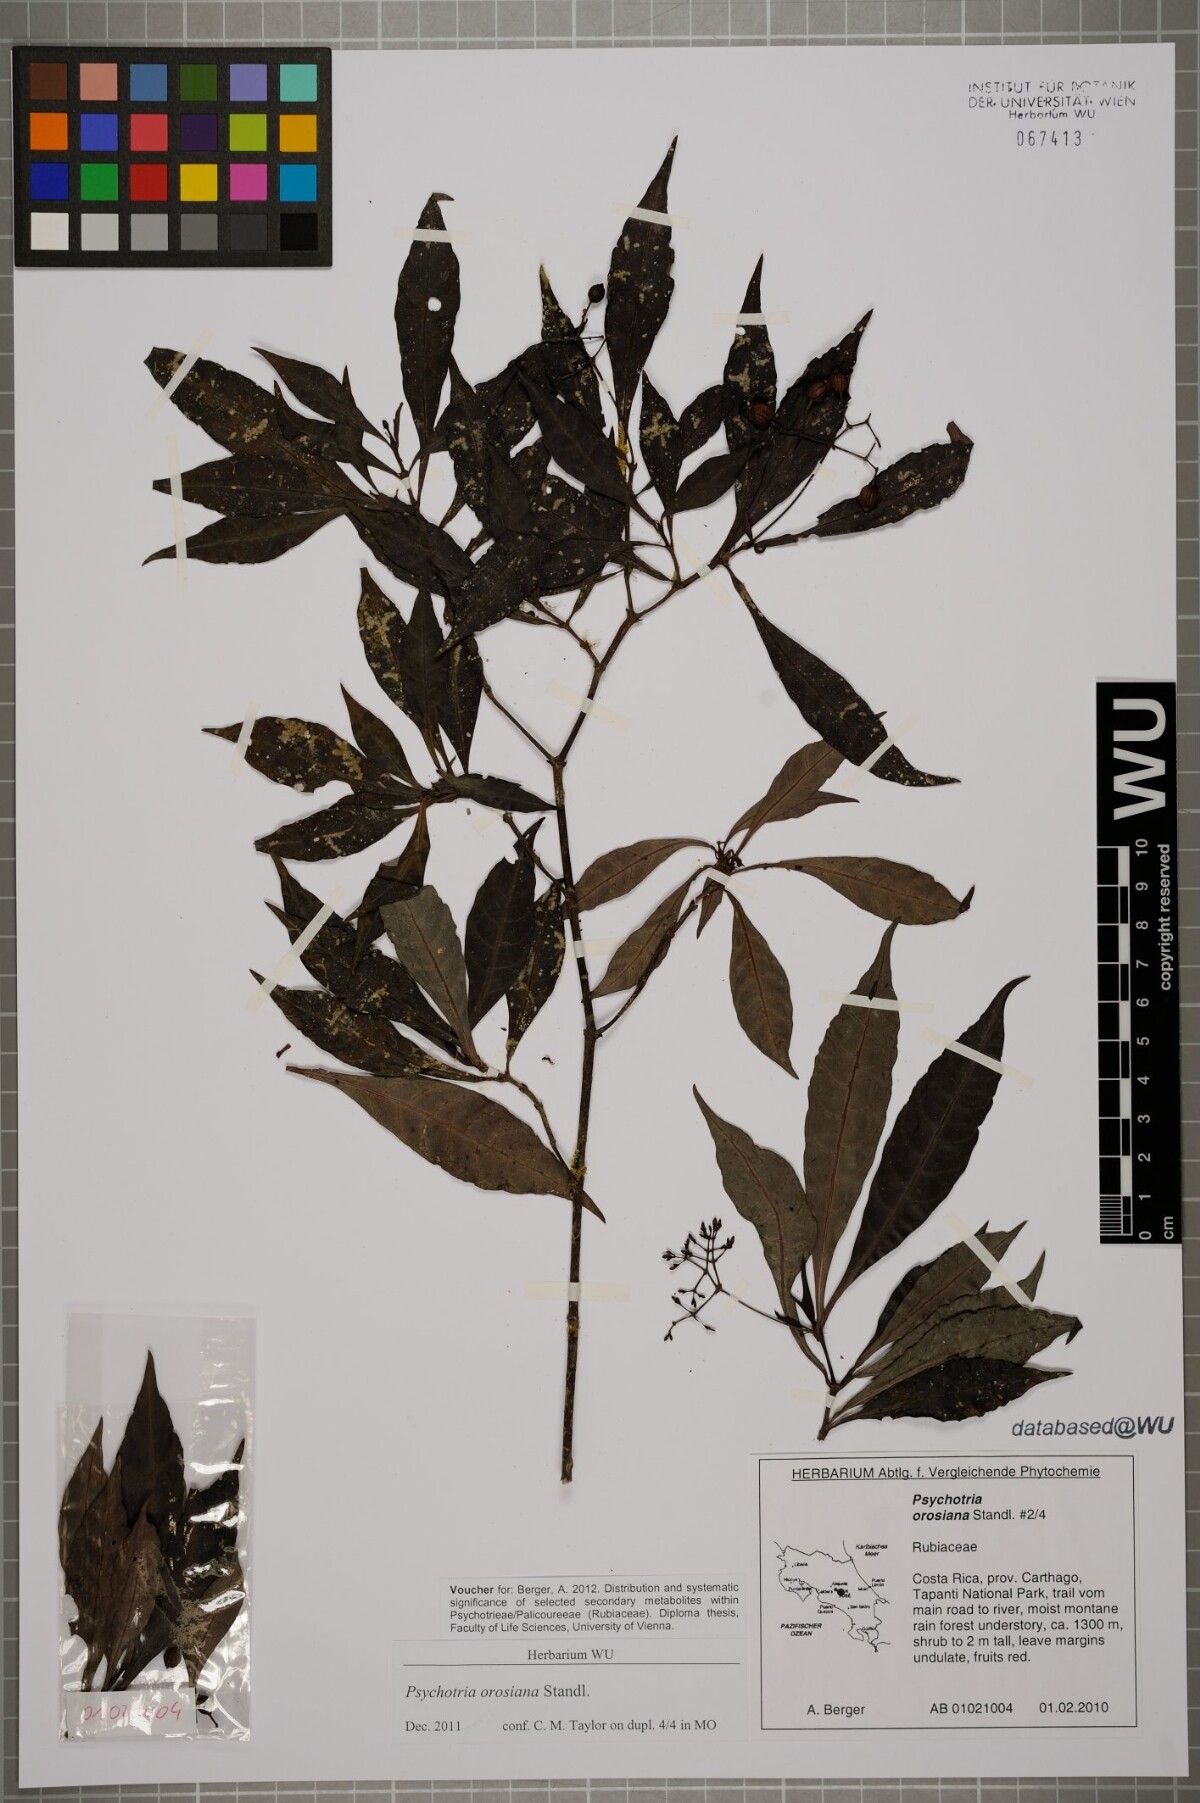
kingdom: Plantae
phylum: Tracheophyta
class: Magnoliopsida
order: Gentianales
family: Rubiaceae
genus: Psychotria
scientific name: Psychotria orosiana
